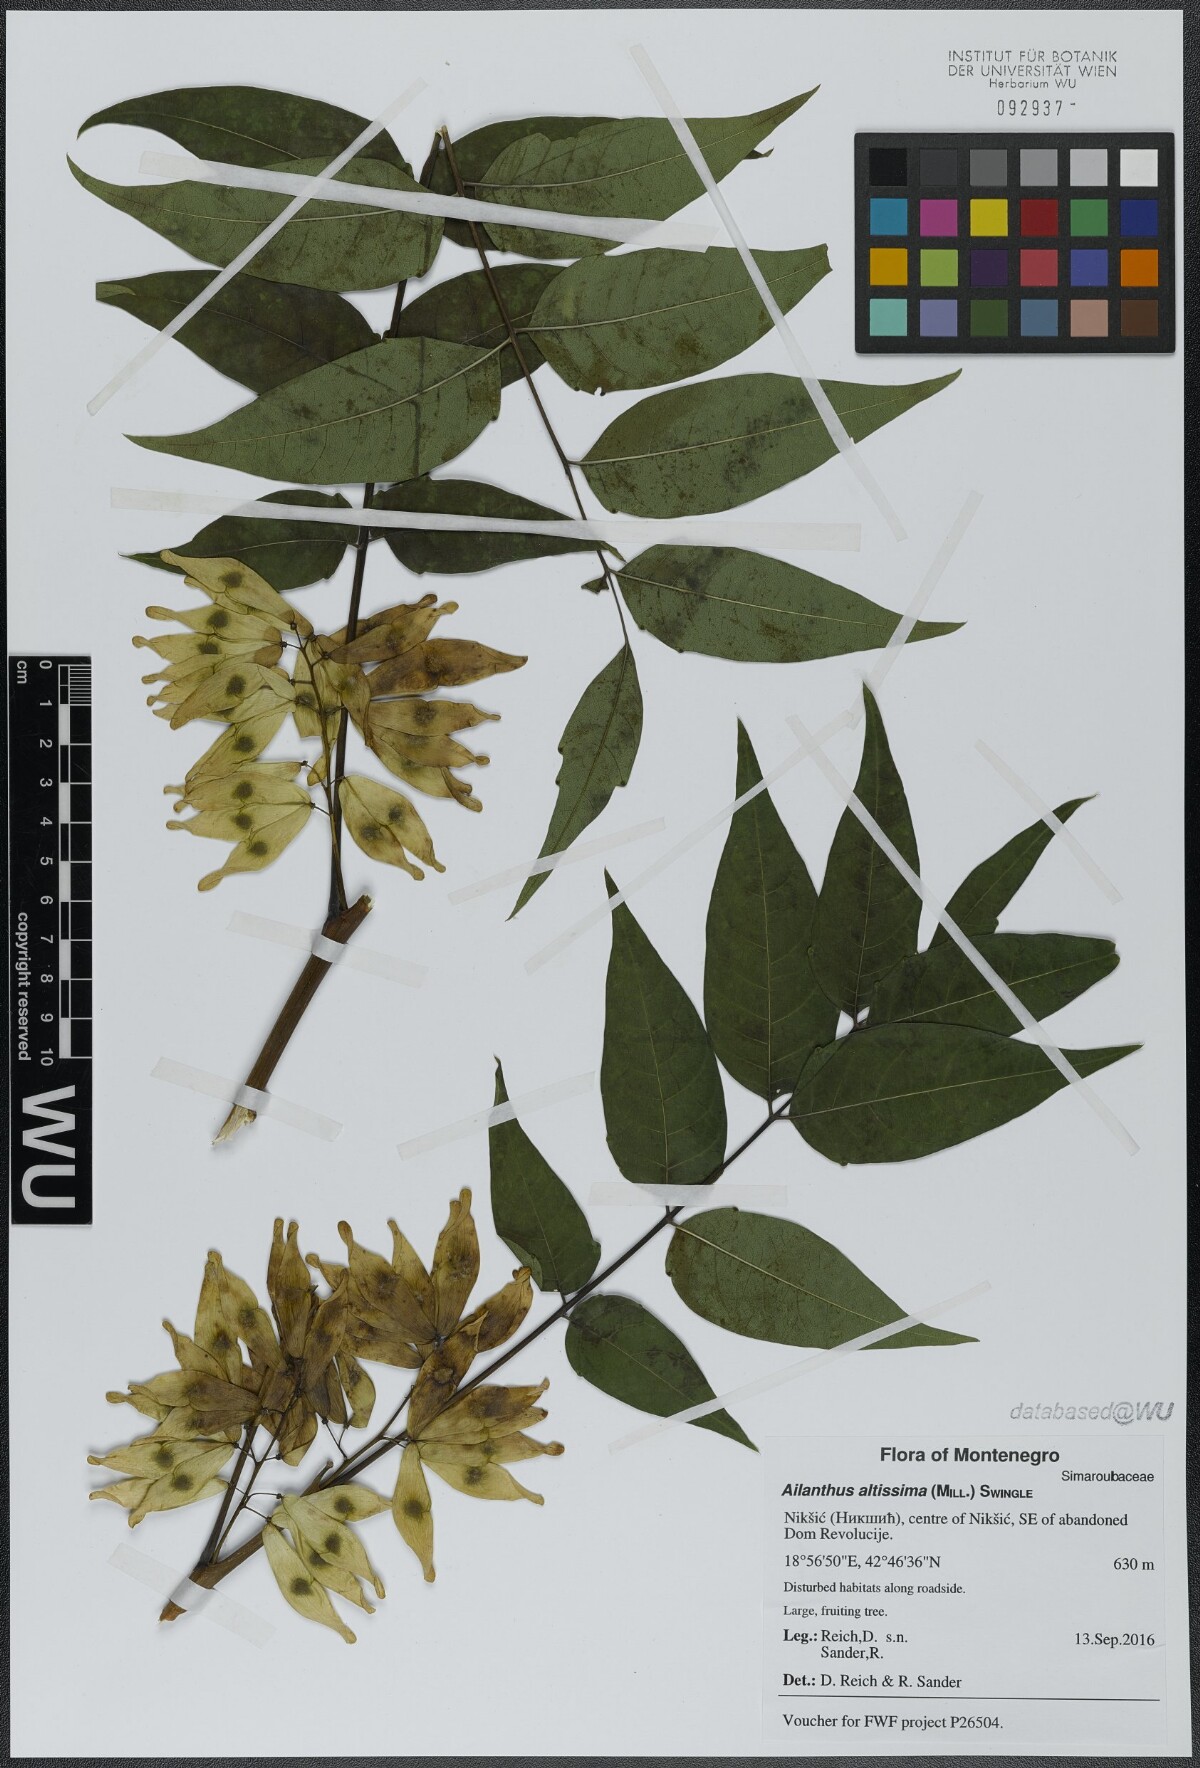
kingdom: Plantae
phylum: Tracheophyta
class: Magnoliopsida
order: Sapindales
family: Simaroubaceae
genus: Ailanthus
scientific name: Ailanthus altissima
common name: Tree-of-heaven
